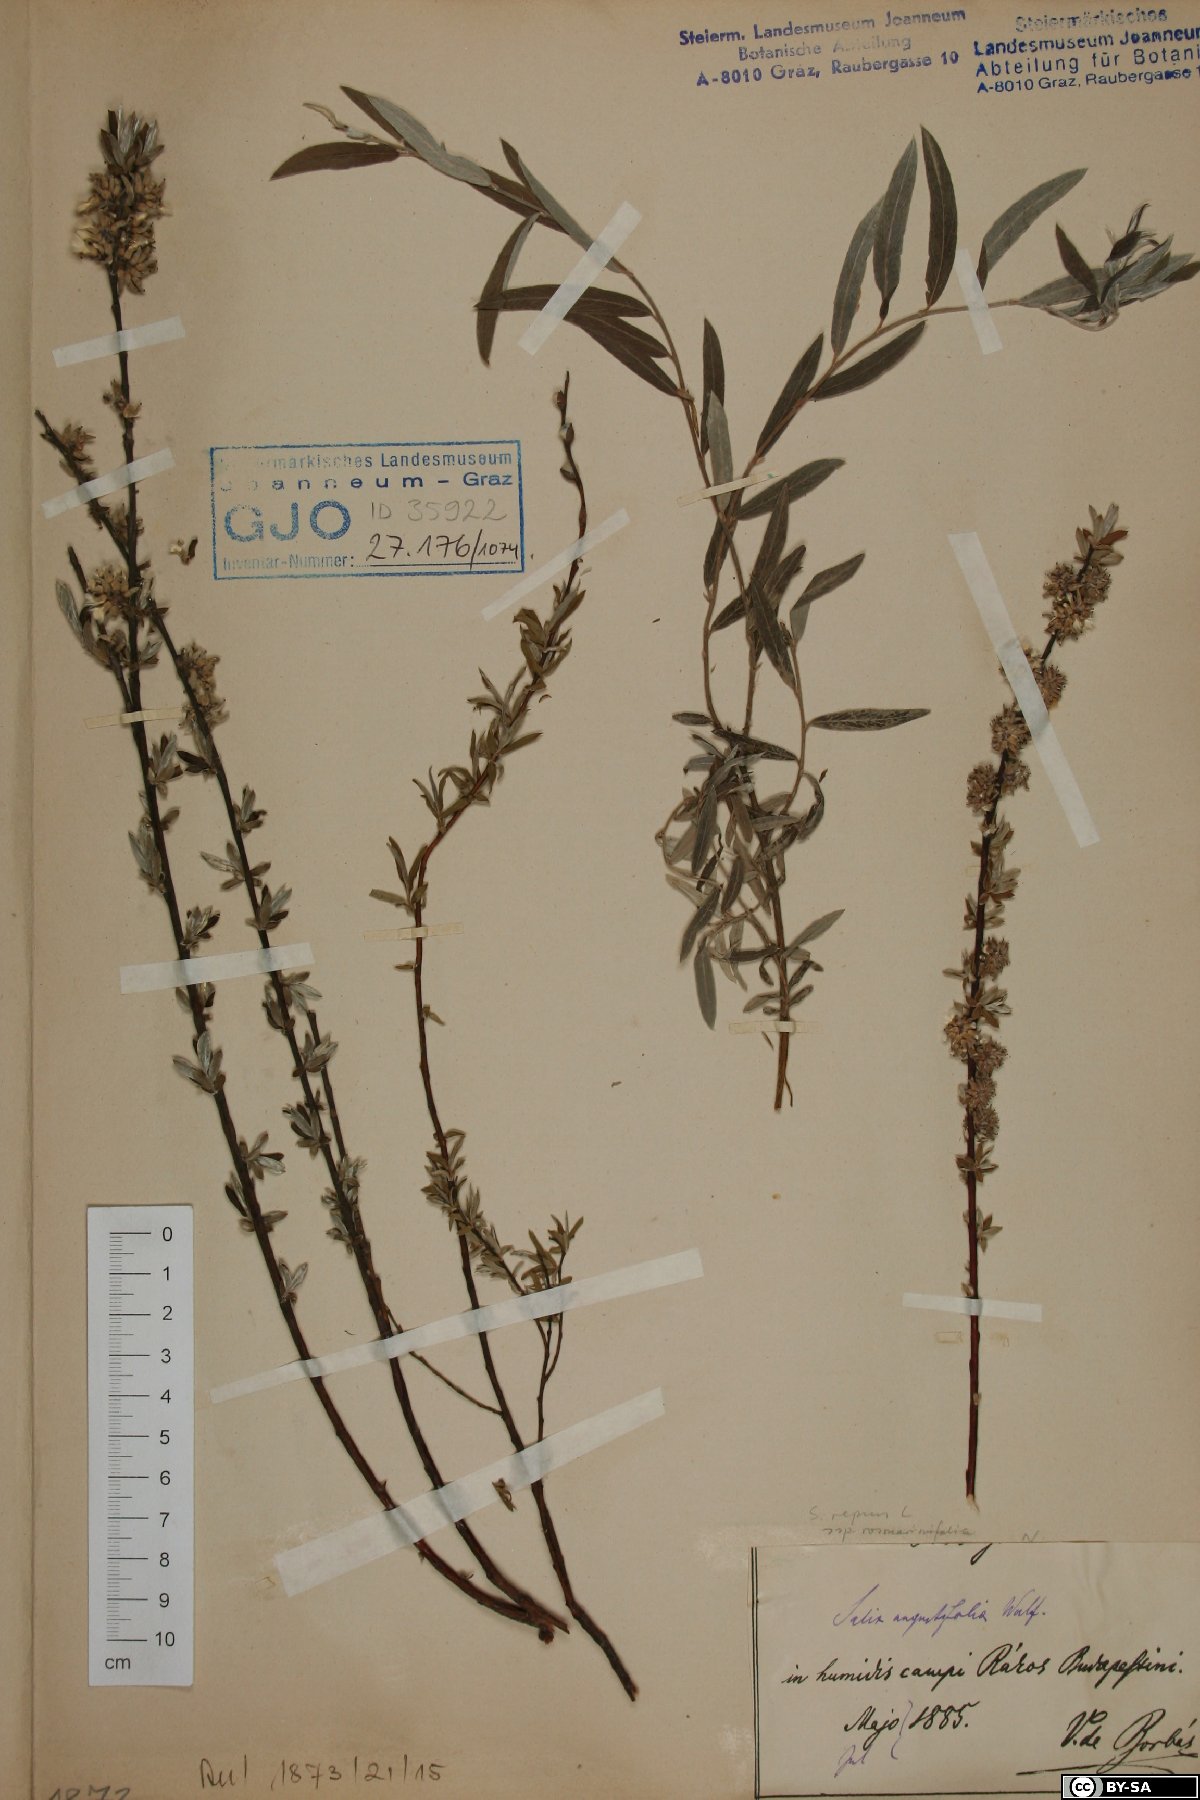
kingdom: Plantae
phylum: Tracheophyta
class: Magnoliopsida
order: Malpighiales
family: Salicaceae
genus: Salix
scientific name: Salix repens
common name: Creeping willow
